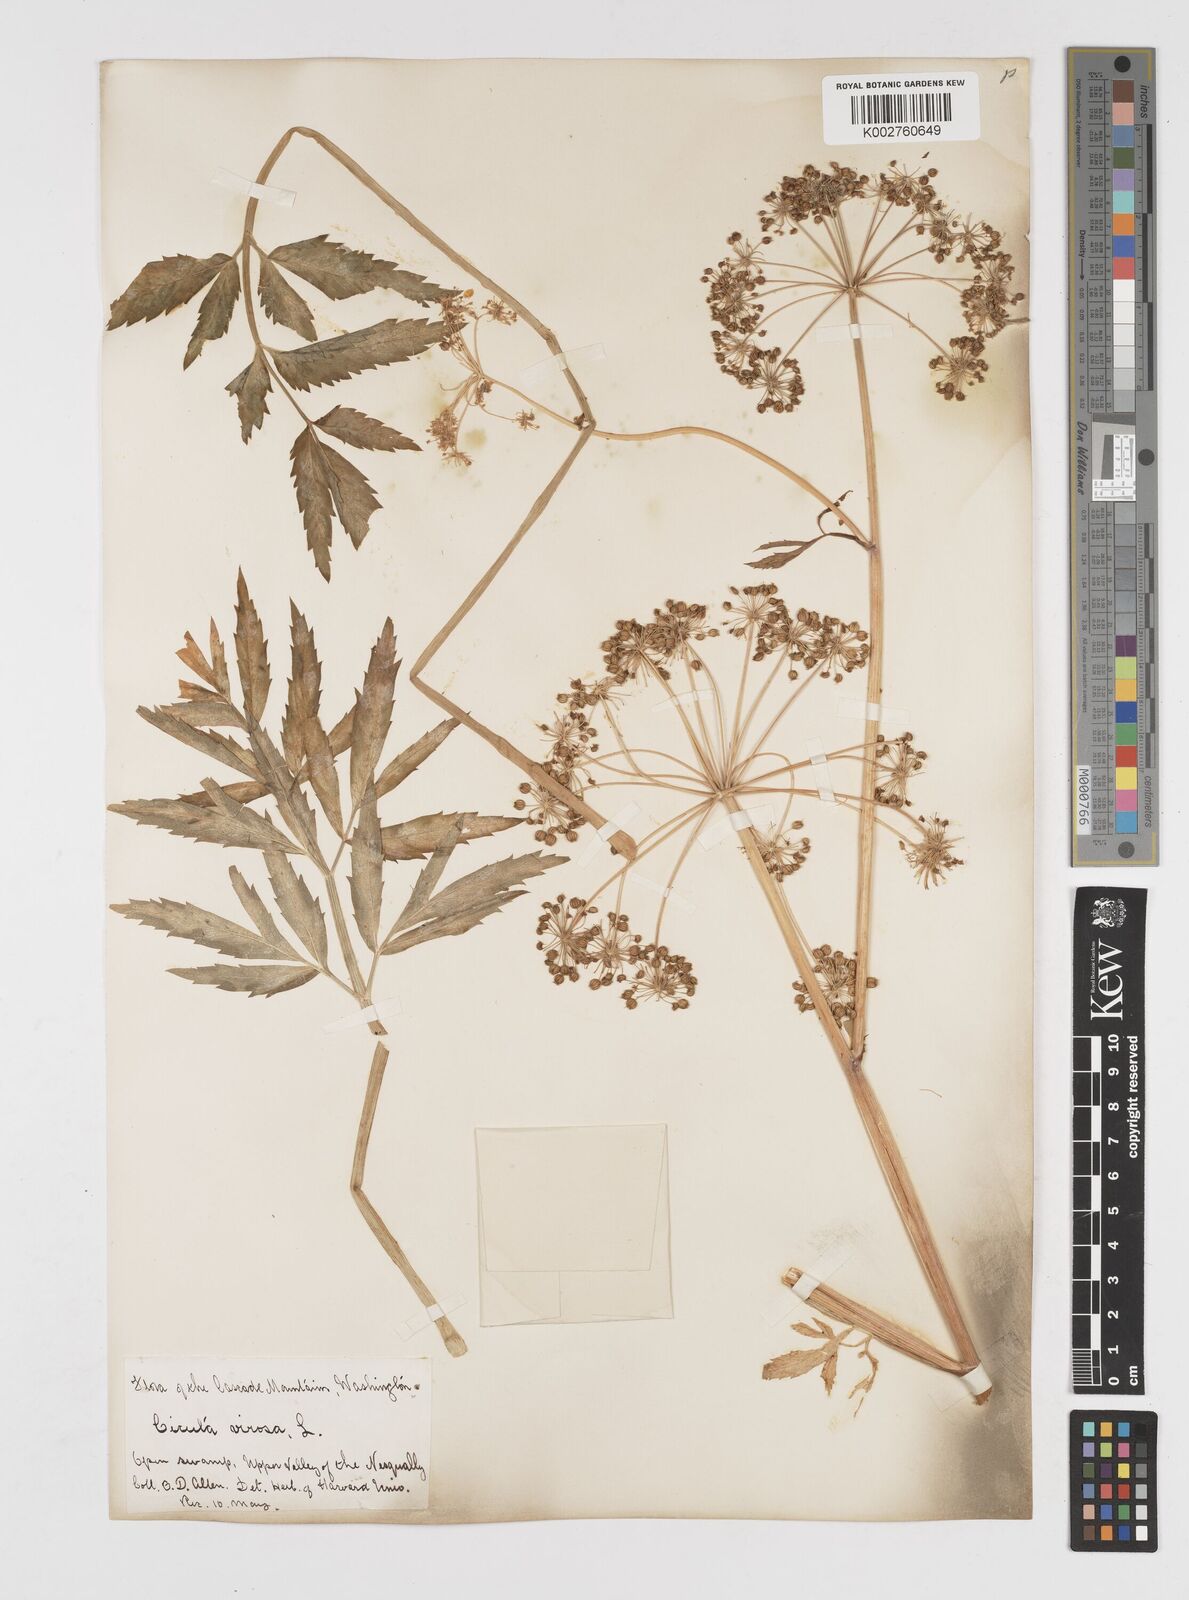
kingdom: Plantae
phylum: Tracheophyta
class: Magnoliopsida
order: Apiales
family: Apiaceae
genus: Cicuta
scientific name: Cicuta douglasii
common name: Western water-hemlock
